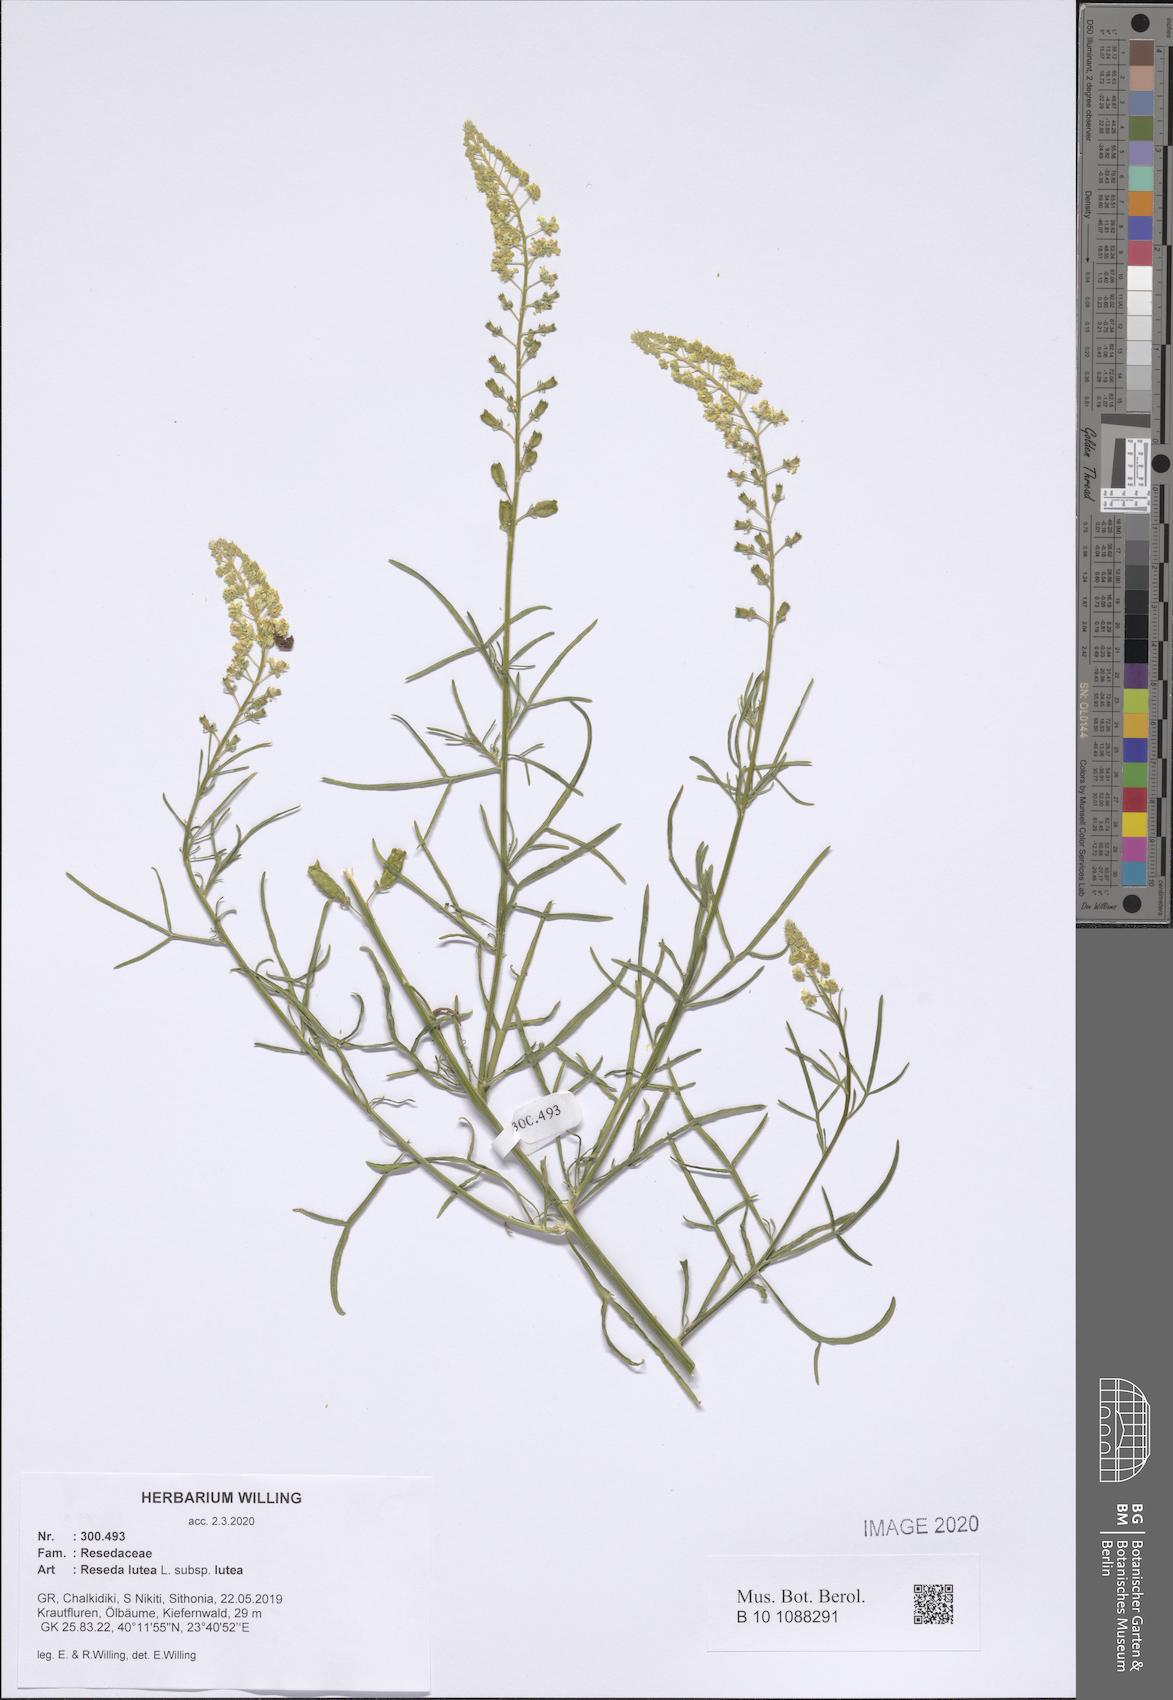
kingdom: Plantae
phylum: Tracheophyta
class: Magnoliopsida
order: Brassicales
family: Resedaceae
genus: Reseda
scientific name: Reseda lutea
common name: Wild mignonette
